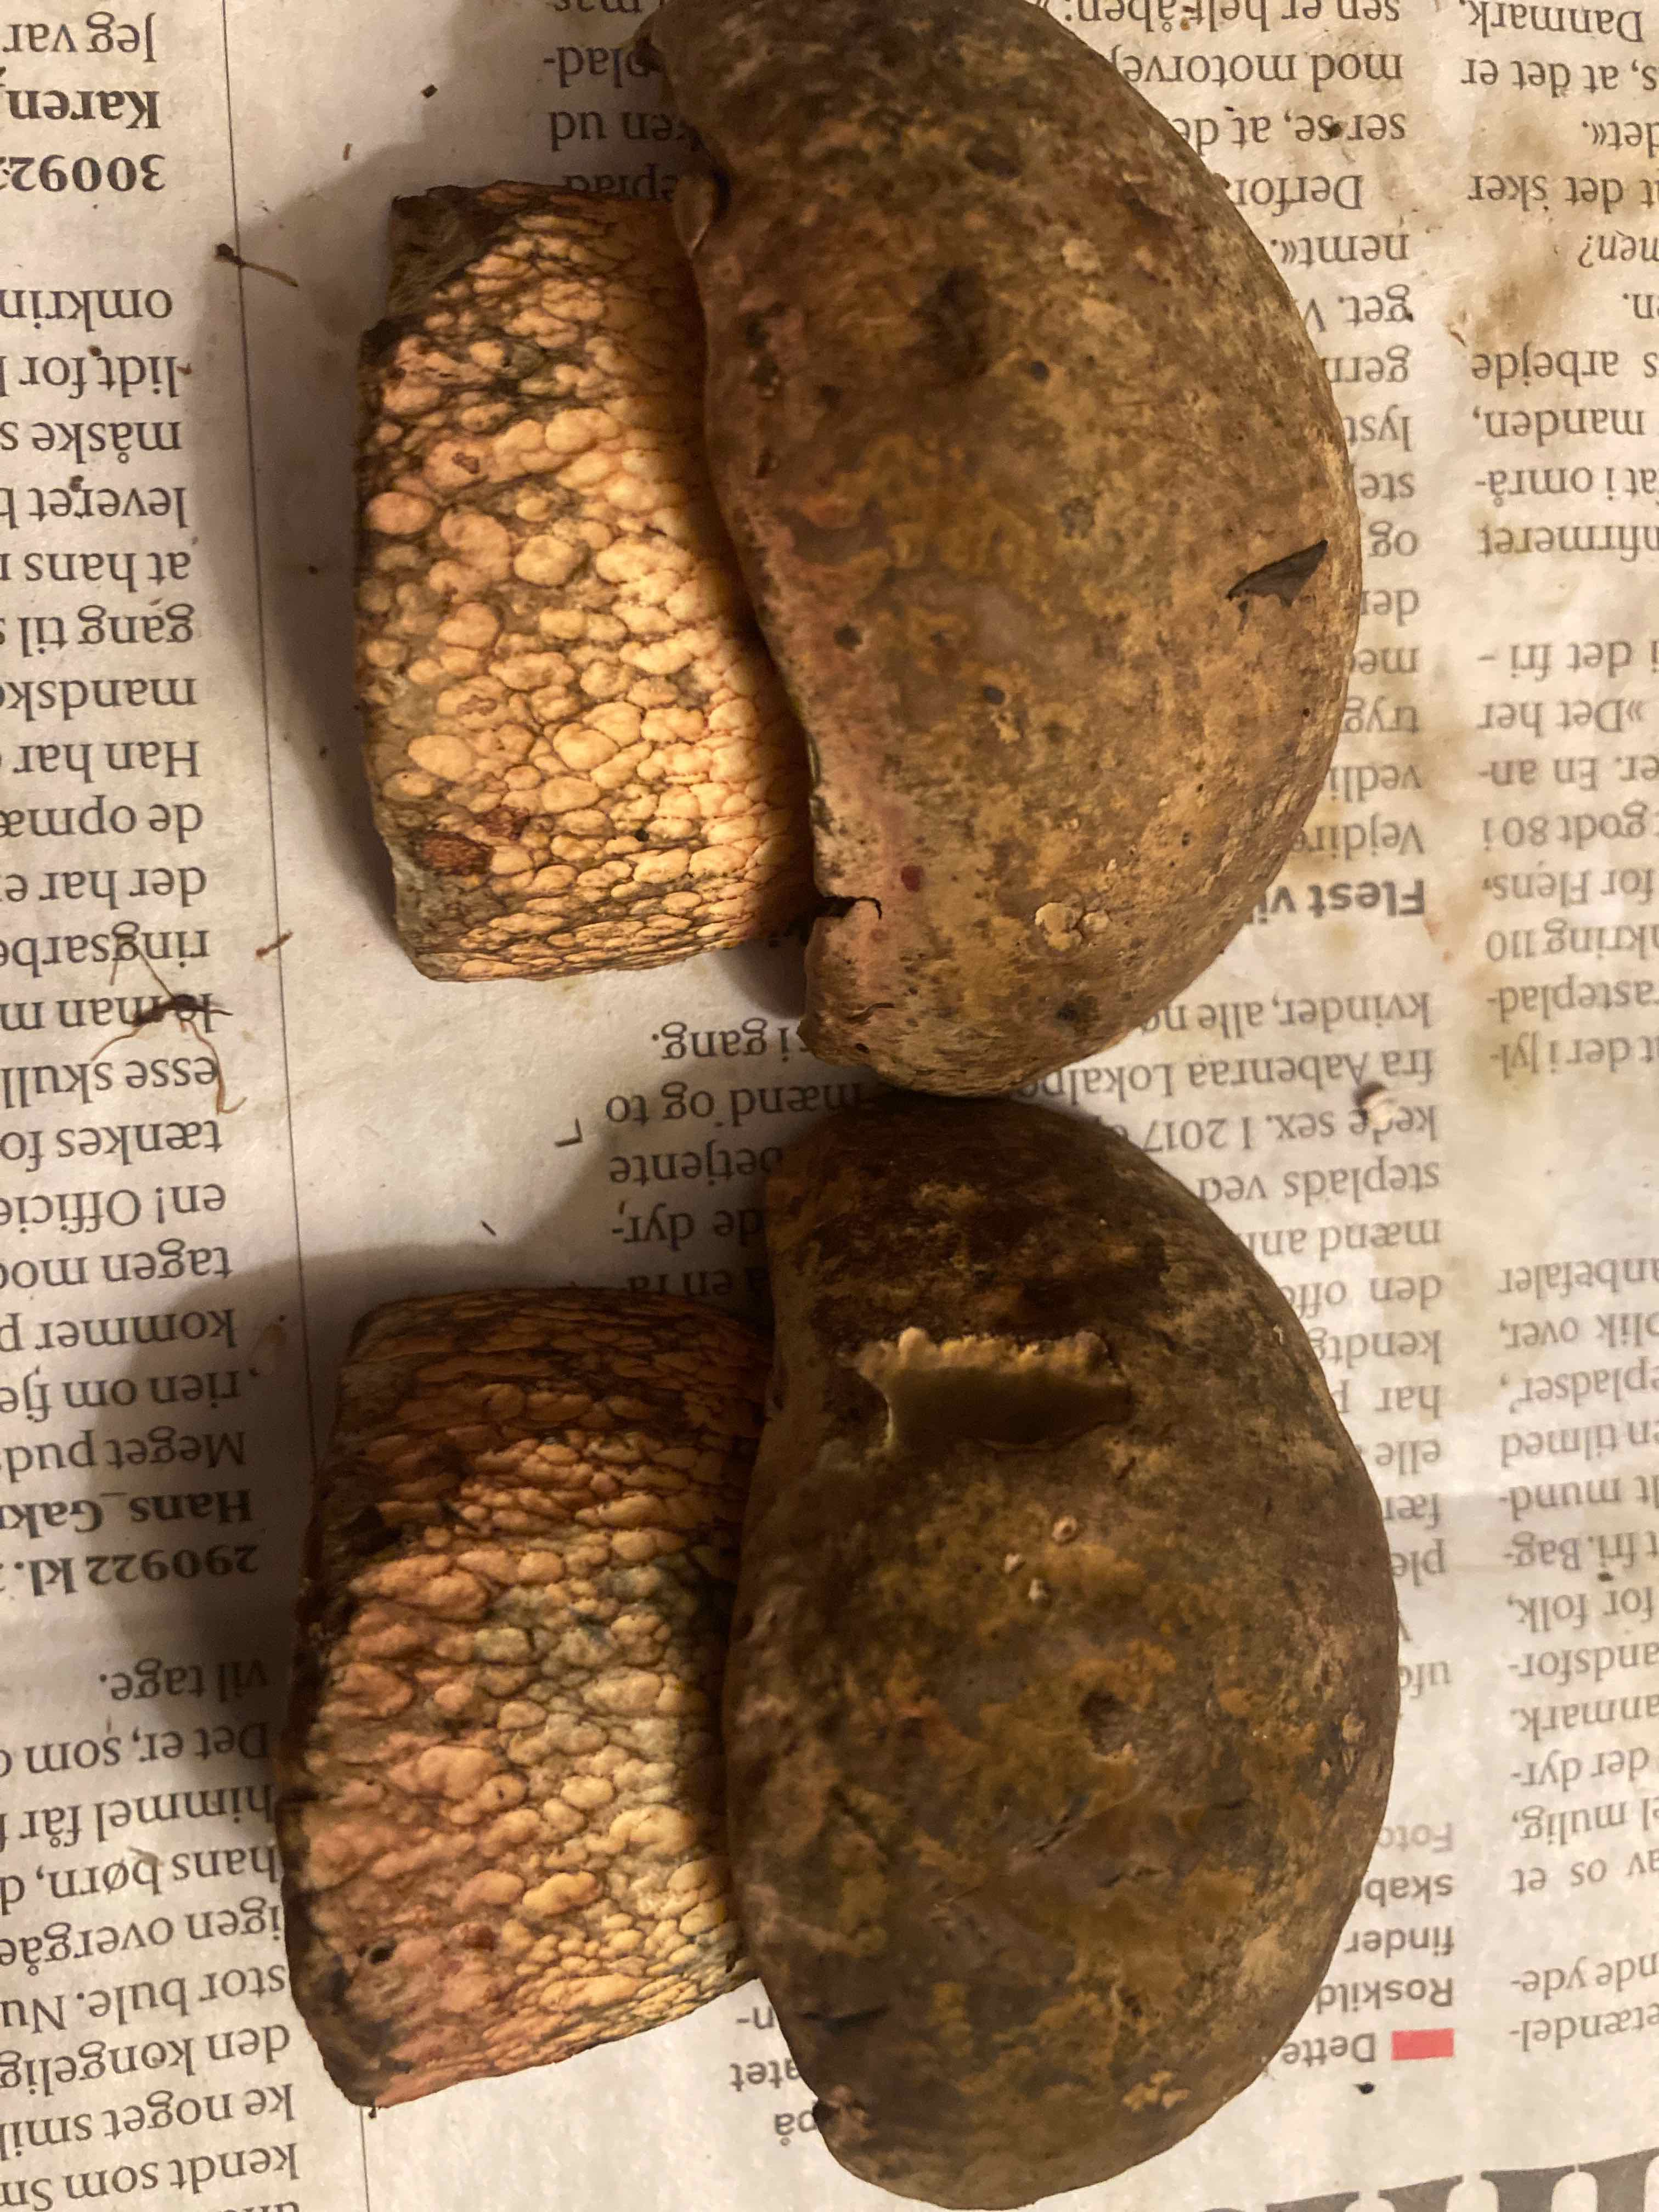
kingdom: Fungi
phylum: Basidiomycota
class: Agaricomycetes
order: Boletales
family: Boletaceae
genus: Suillellus
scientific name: Suillellus luridus
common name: netstokket indigorørhat
